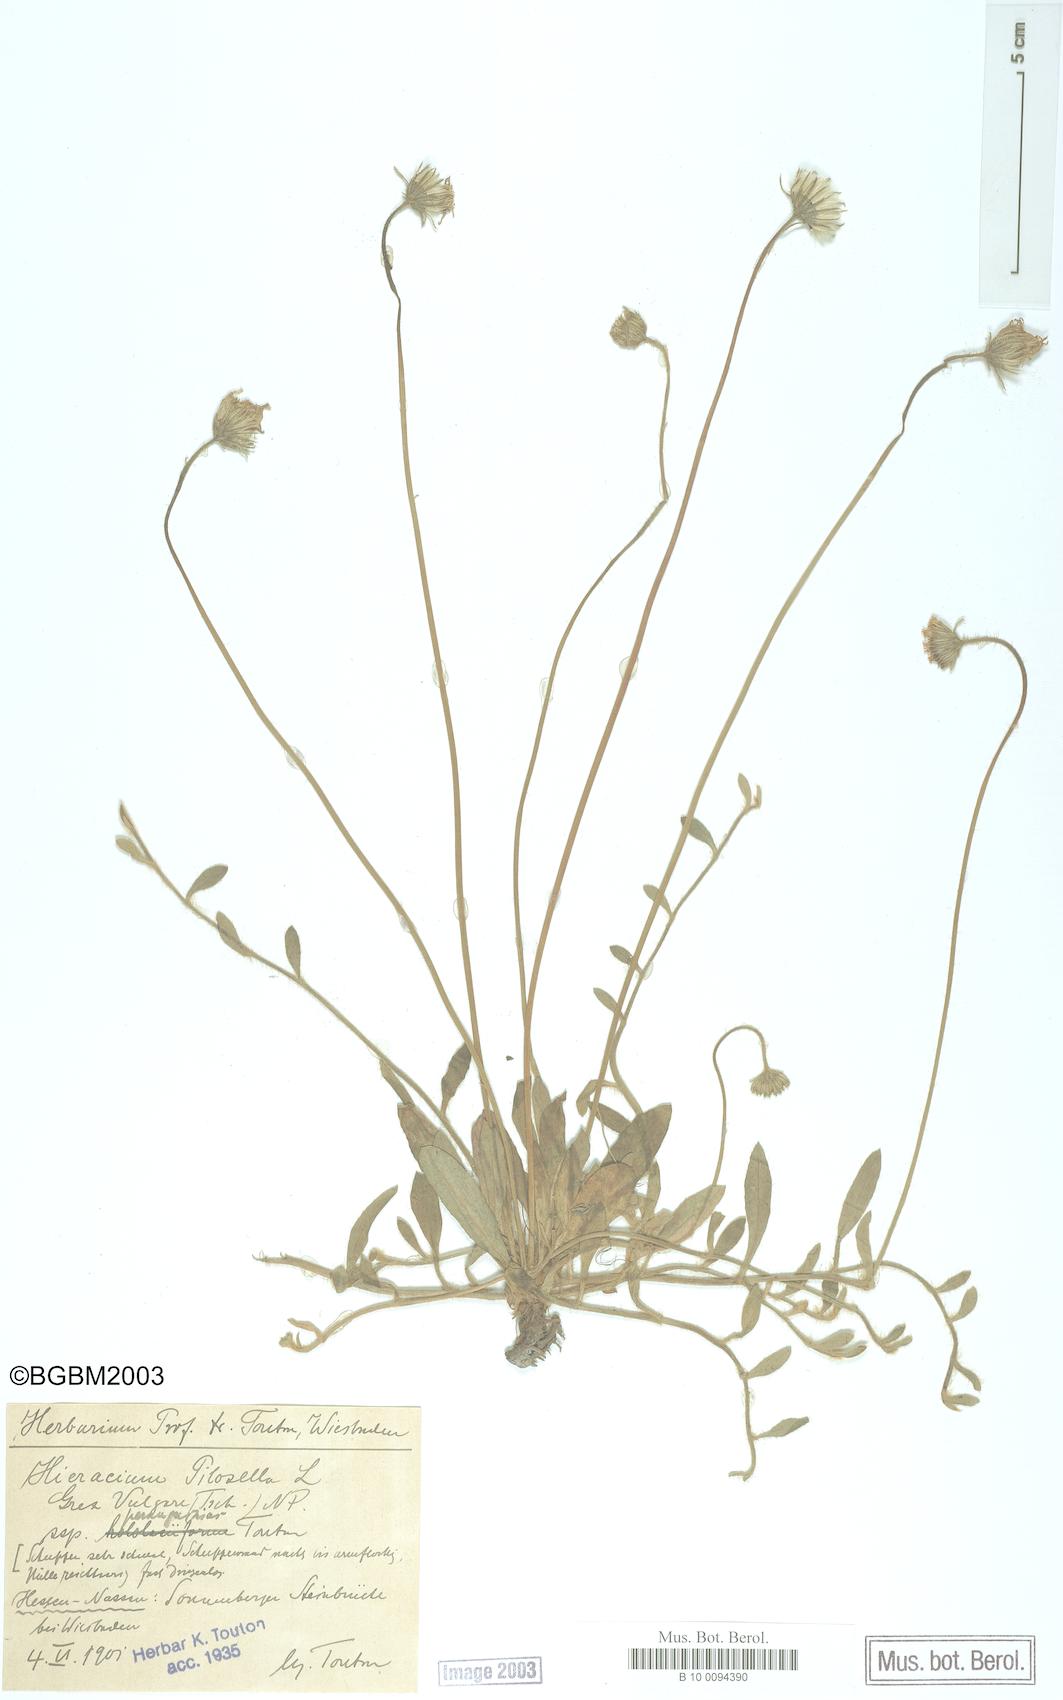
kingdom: Plantae
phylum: Tracheophyta
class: Magnoliopsida
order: Asterales
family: Asteraceae
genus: Pilosella
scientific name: Pilosella officinarum
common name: Mouse-ear hawkweed
